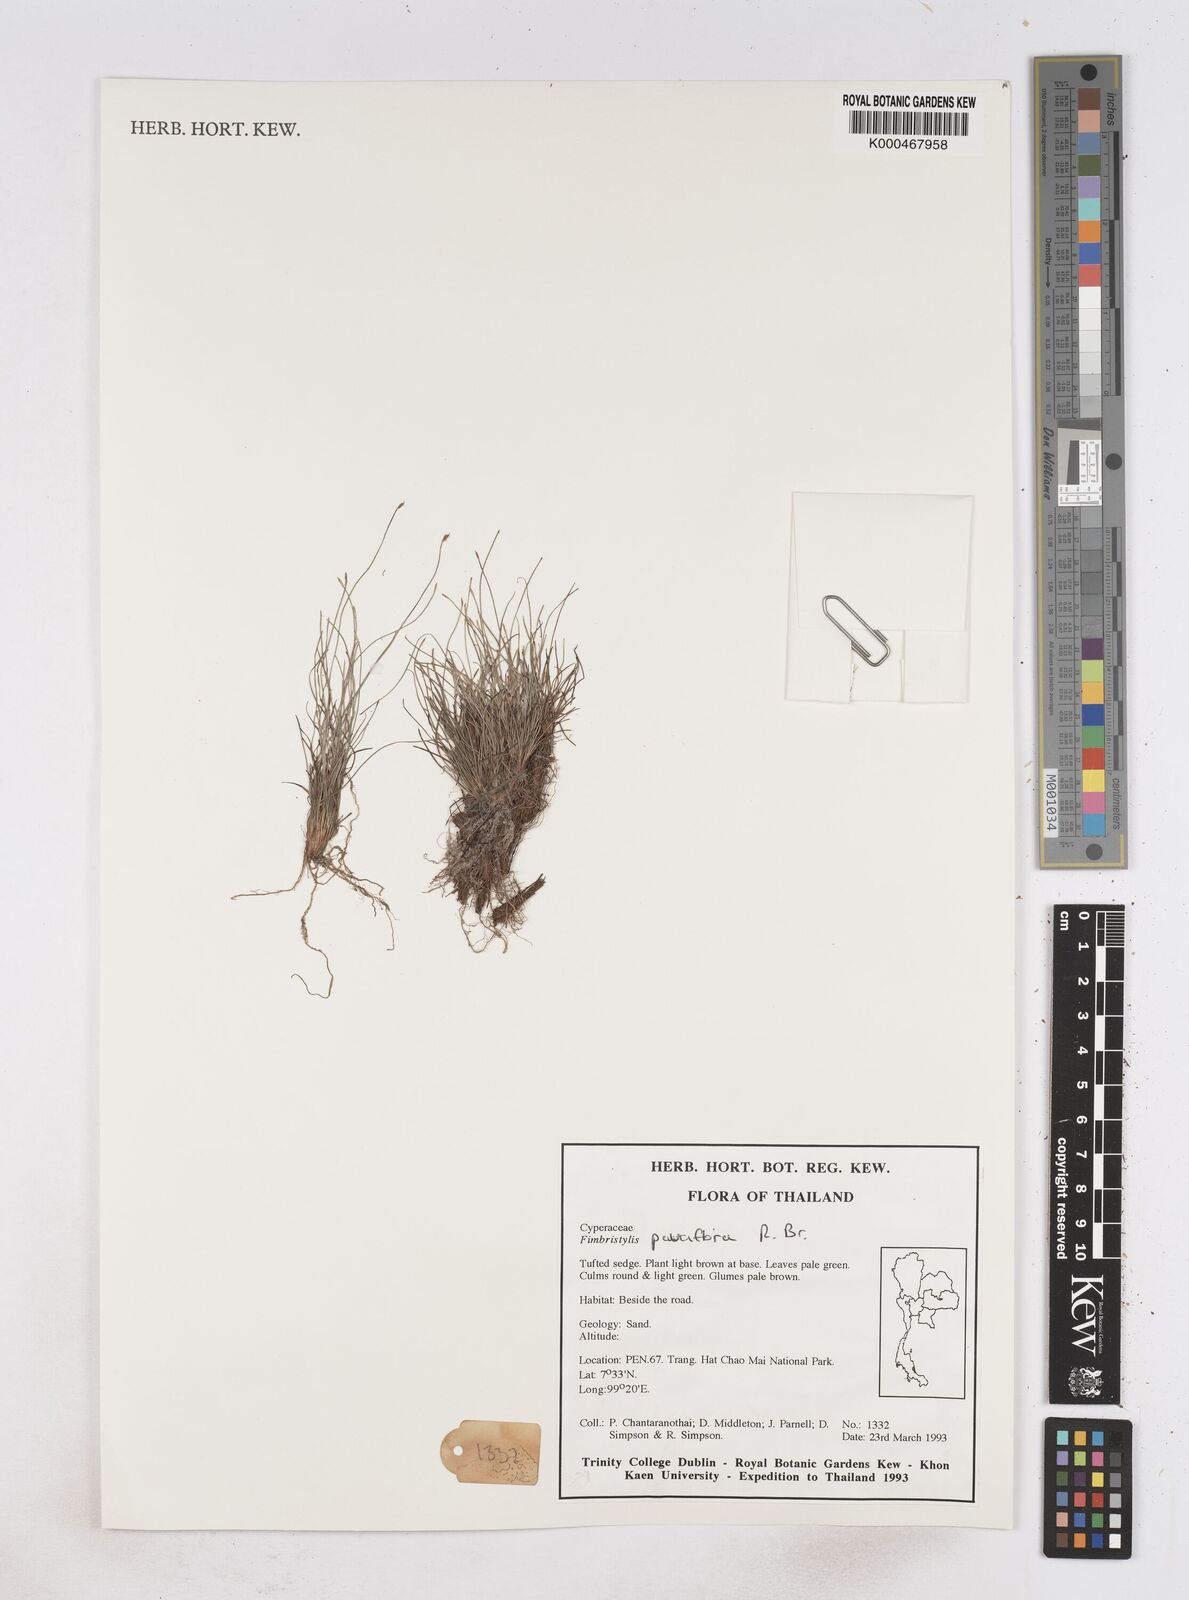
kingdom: Plantae
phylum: Tracheophyta
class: Liliopsida
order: Poales
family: Cyperaceae
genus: Fimbristylis
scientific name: Fimbristylis pauciflora
